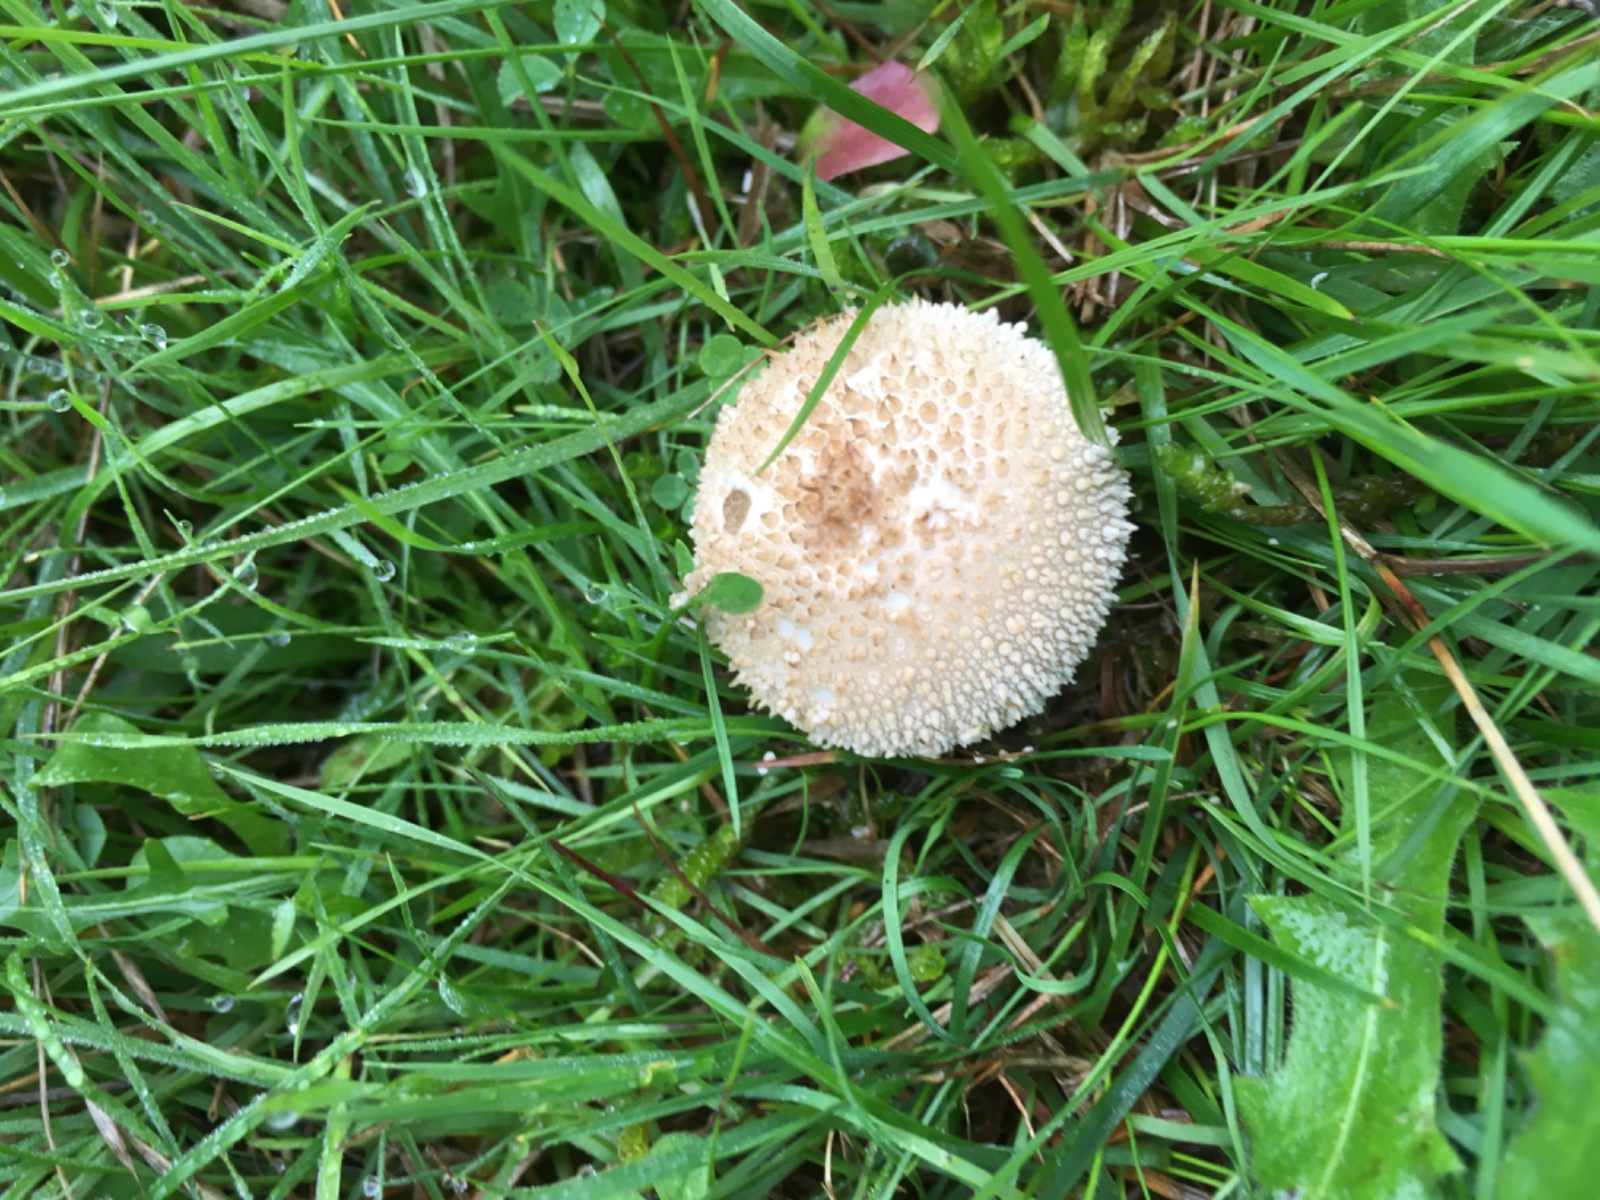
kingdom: Fungi
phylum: Basidiomycota
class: Agaricomycetes
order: Agaricales
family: Lycoperdaceae
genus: Lycoperdon
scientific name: Lycoperdon perlatum
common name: krystal-støvbold
